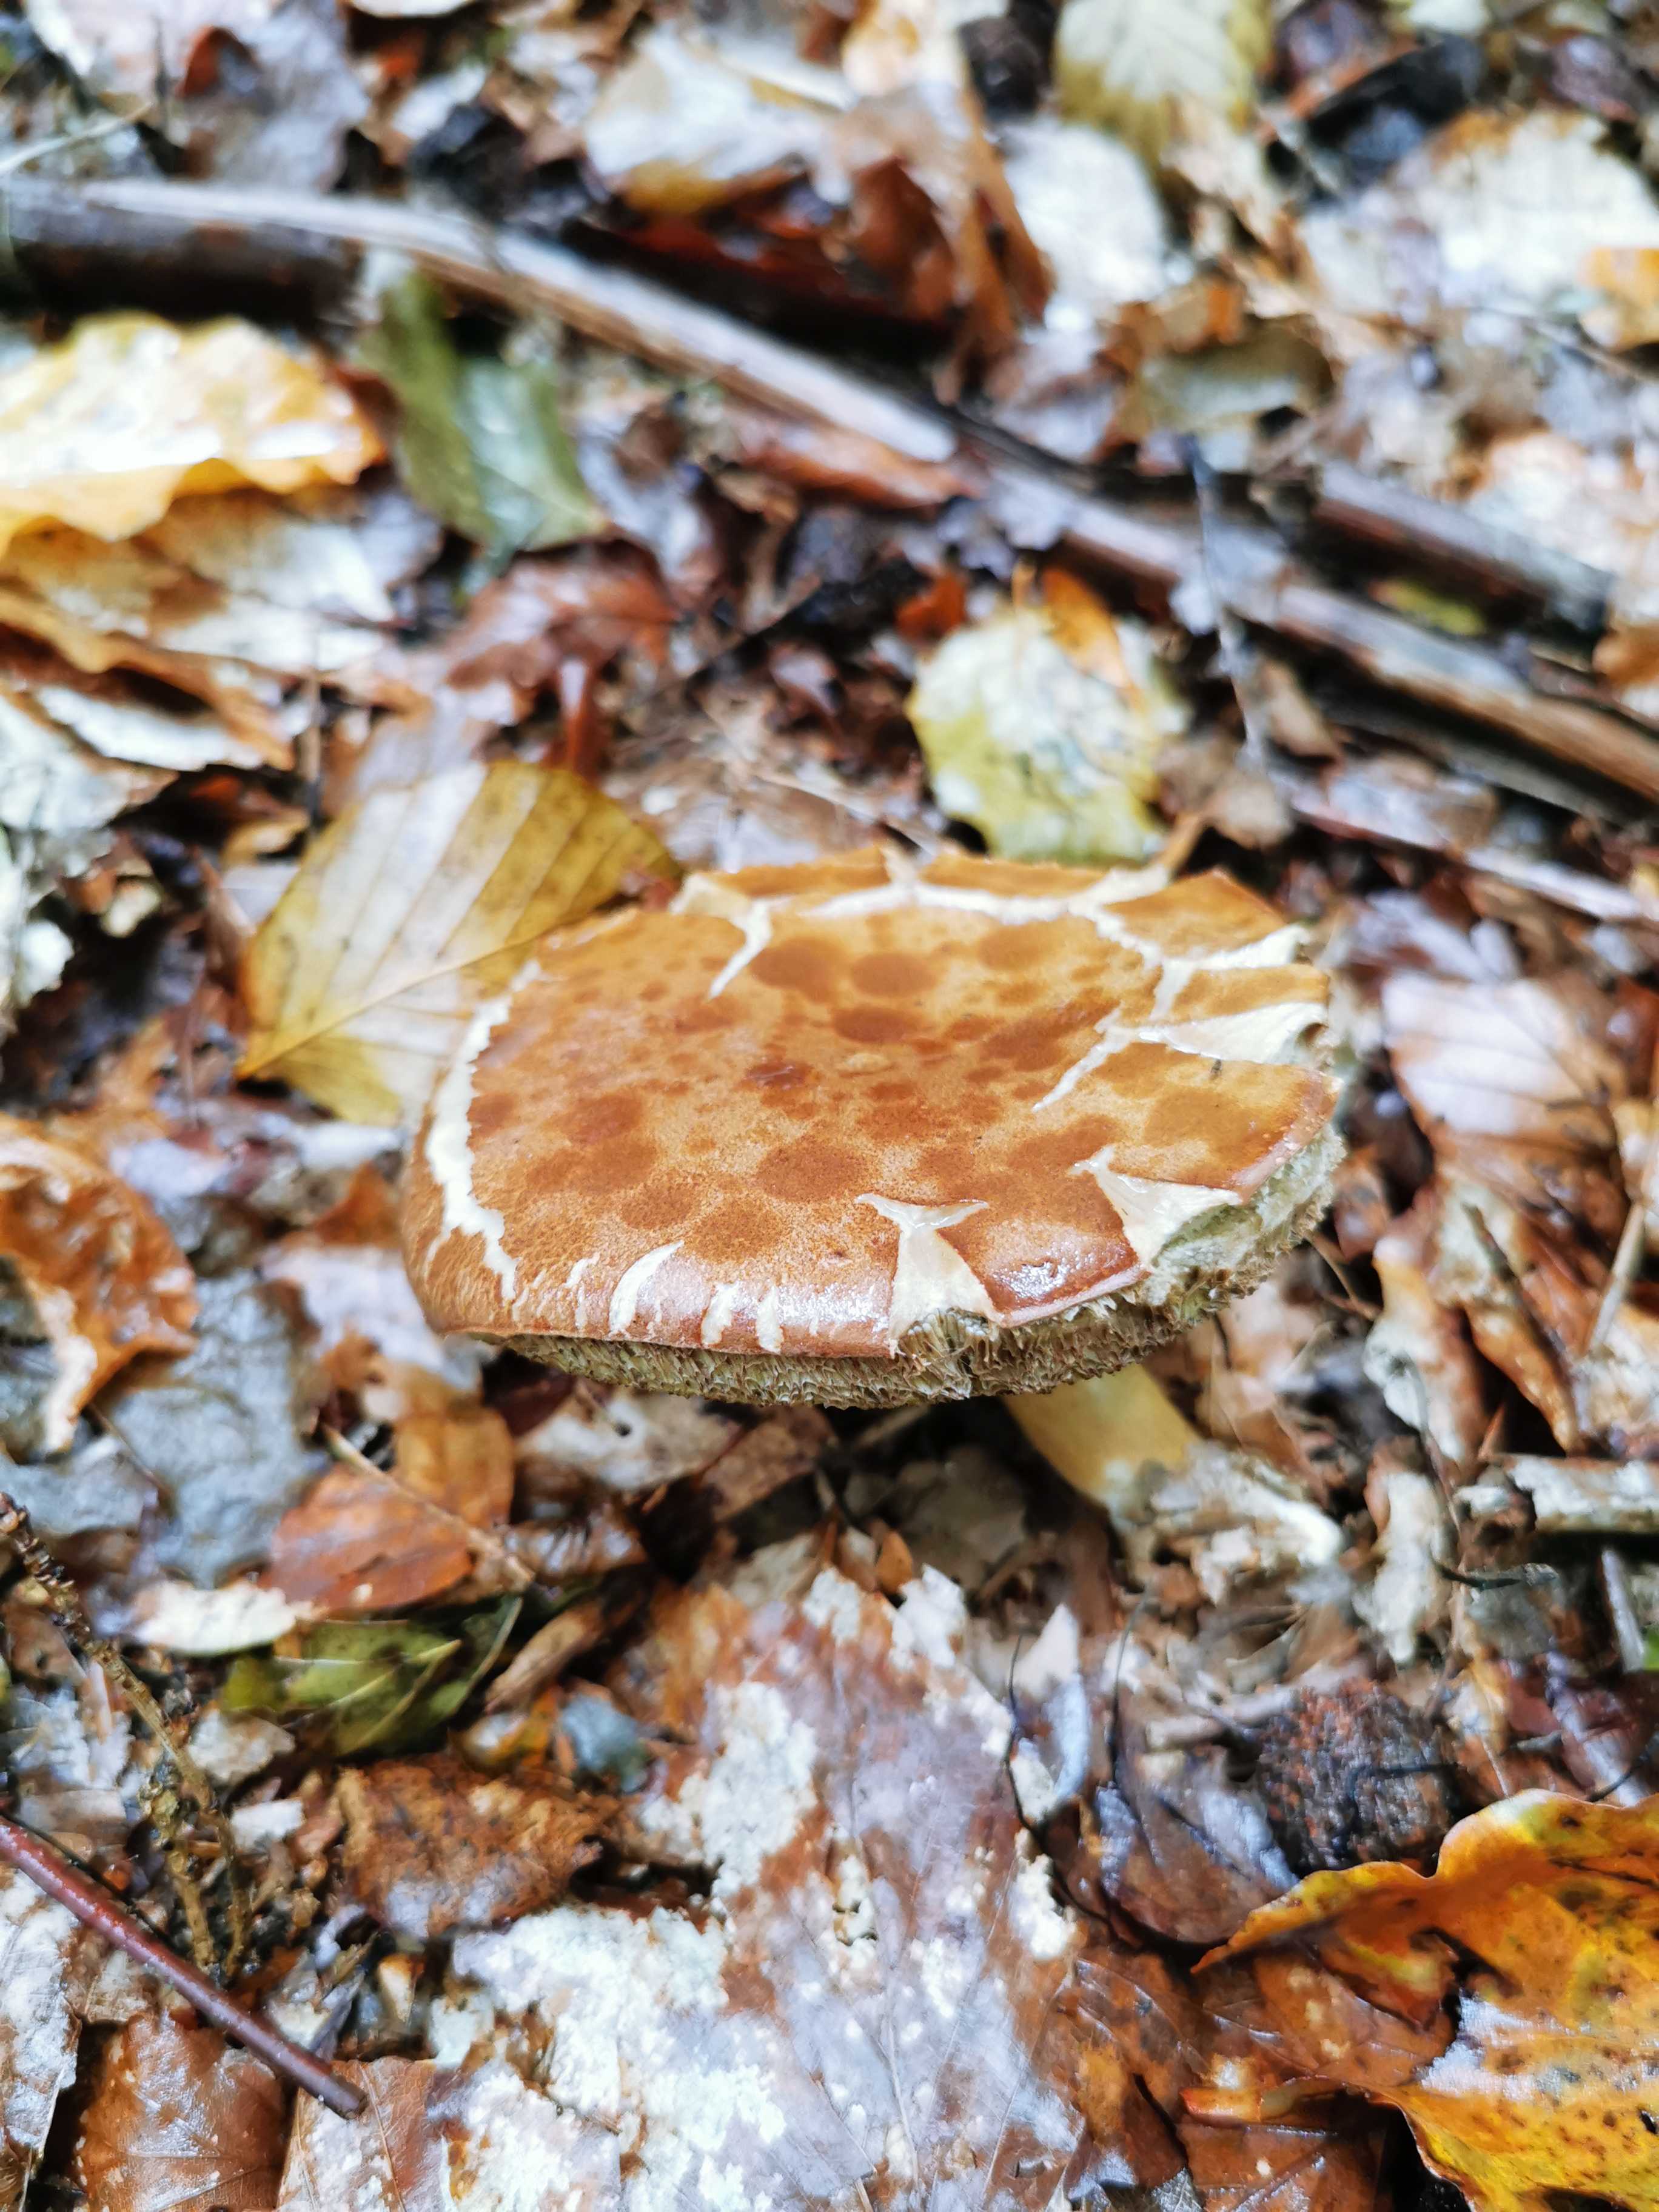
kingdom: Fungi
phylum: Basidiomycota
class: Agaricomycetes
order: Boletales
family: Boletaceae
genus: Imleria
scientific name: Imleria badia
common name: brunstokket rørhat
